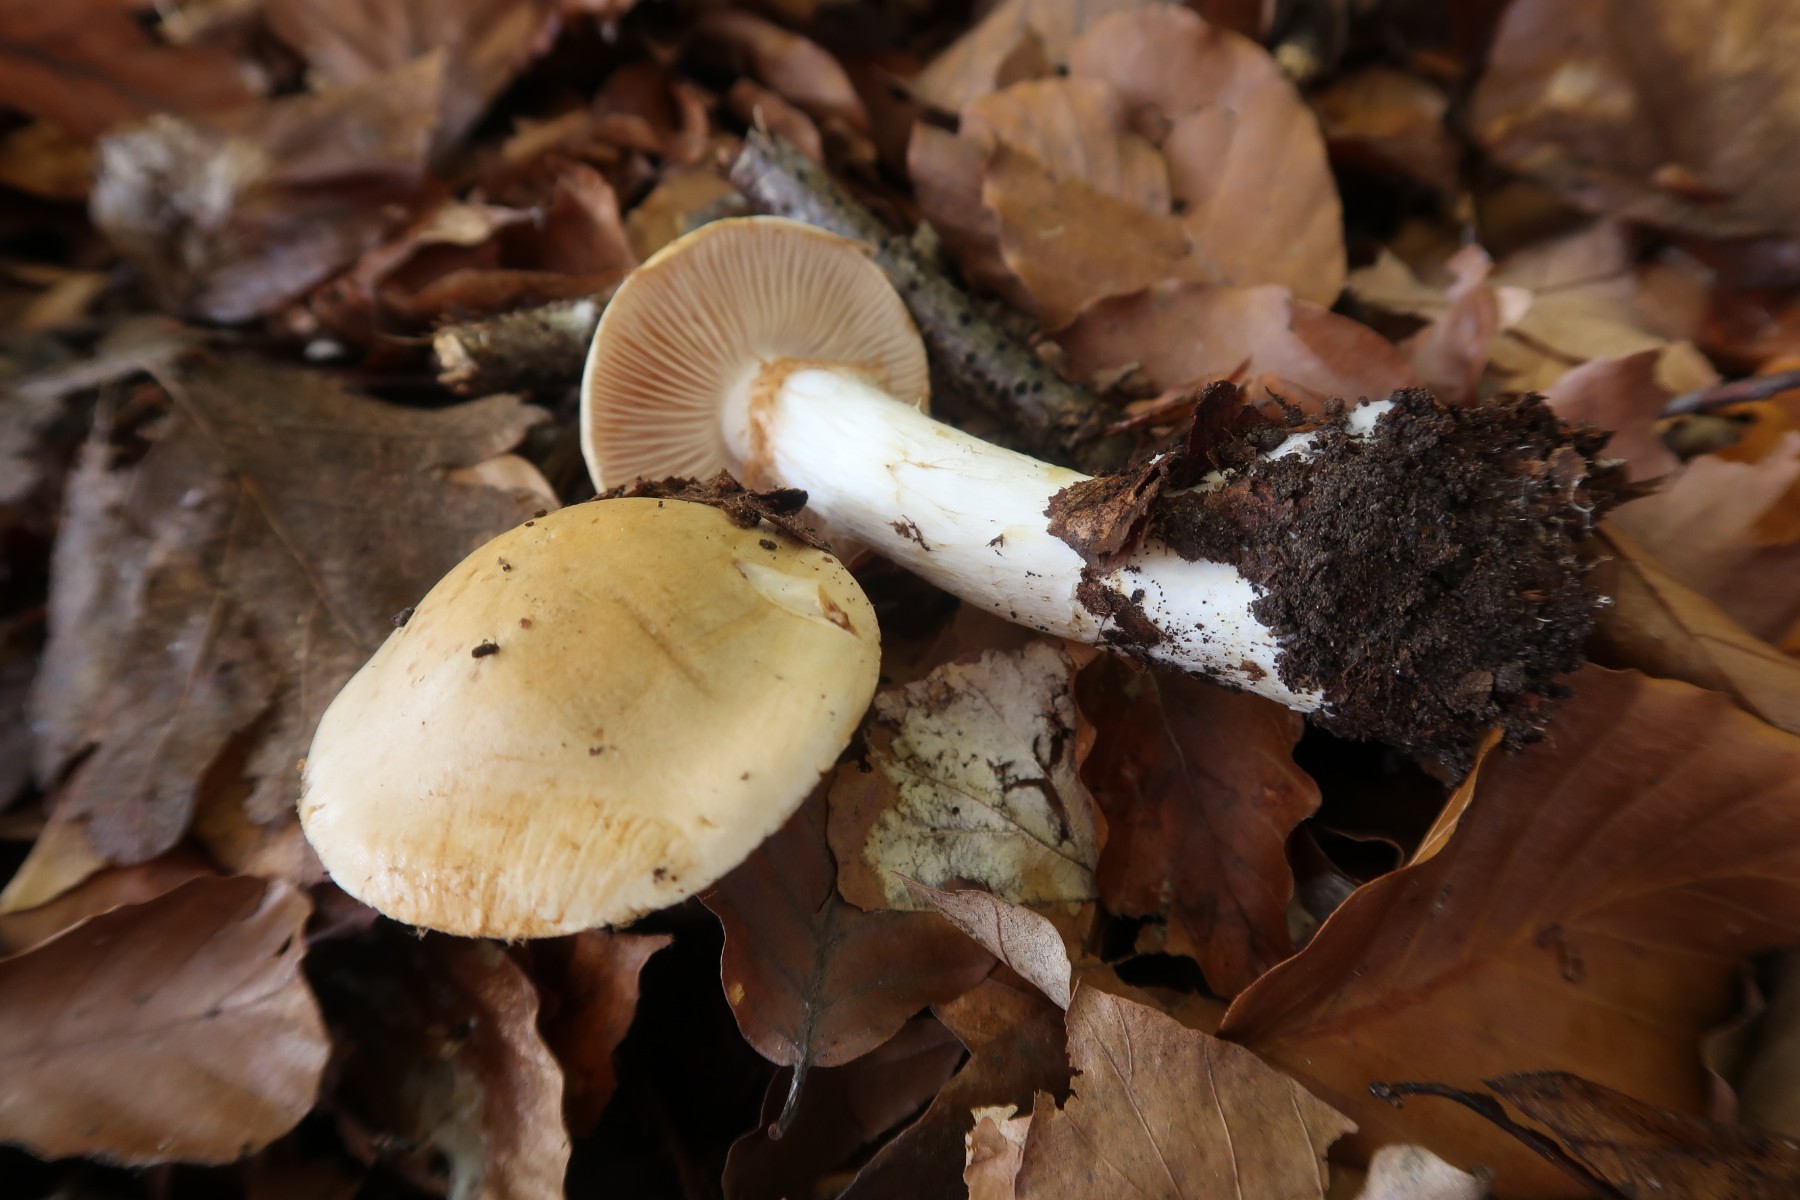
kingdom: Fungi
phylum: Basidiomycota
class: Agaricomycetes
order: Agaricales
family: Cortinariaceae
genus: Phlegmacium
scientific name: Phlegmacium cliduchus
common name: majs-slørhat
